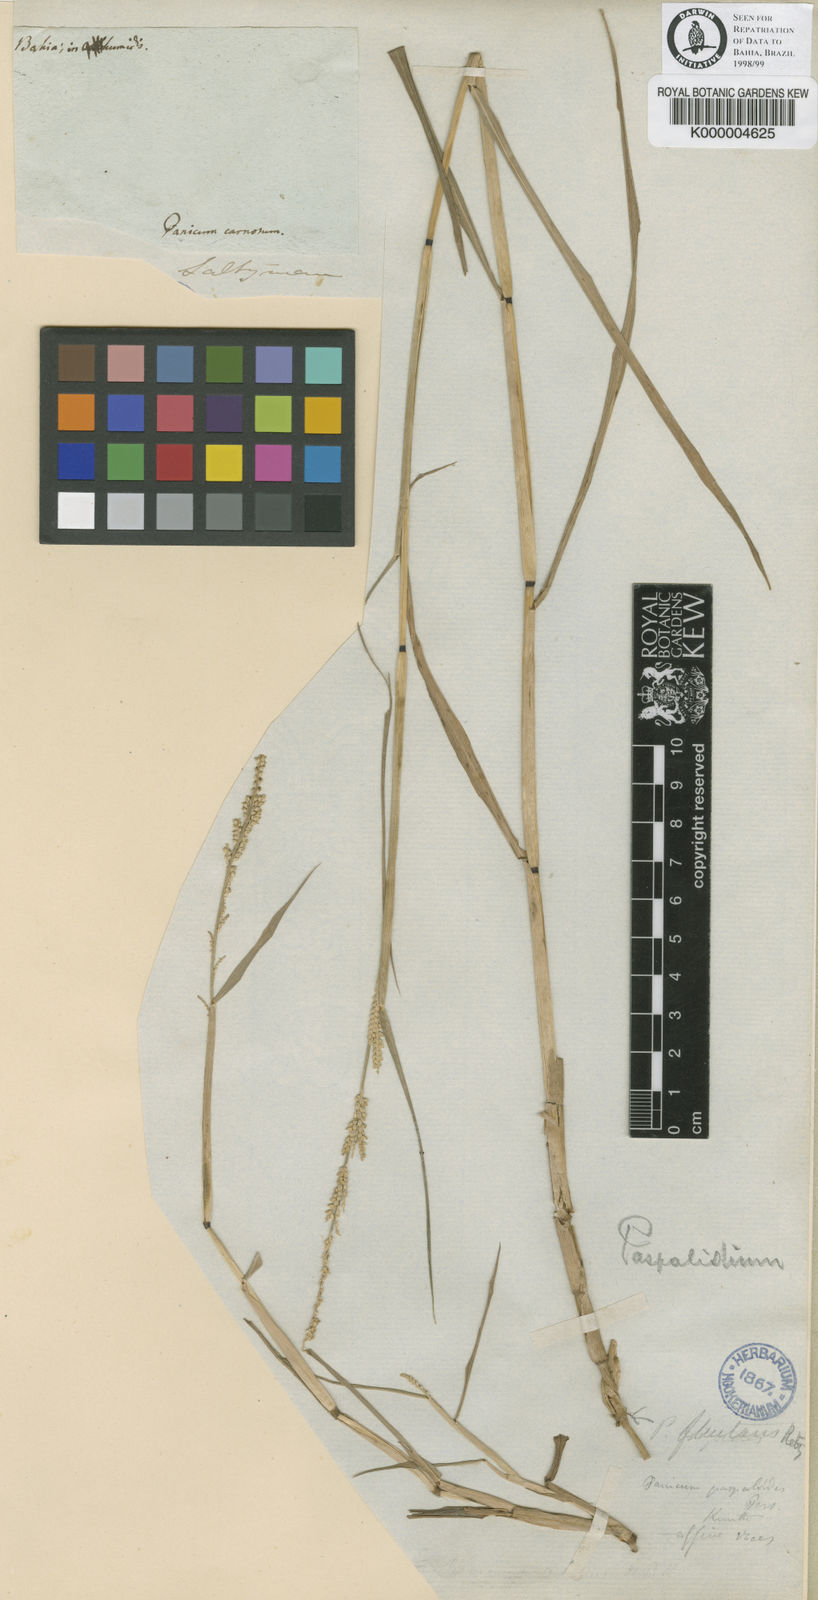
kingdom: Plantae
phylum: Tracheophyta
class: Liliopsida
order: Poales
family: Poaceae
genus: Setaria
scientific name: Setaria geminata
